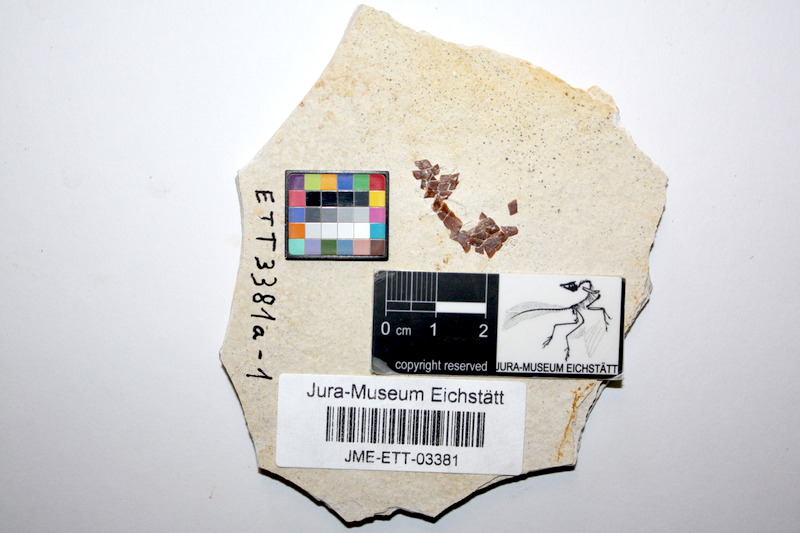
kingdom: Animalia
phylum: Chordata
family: Ophiopsiellidae
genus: Ophiopsiella
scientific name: Ophiopsiella
